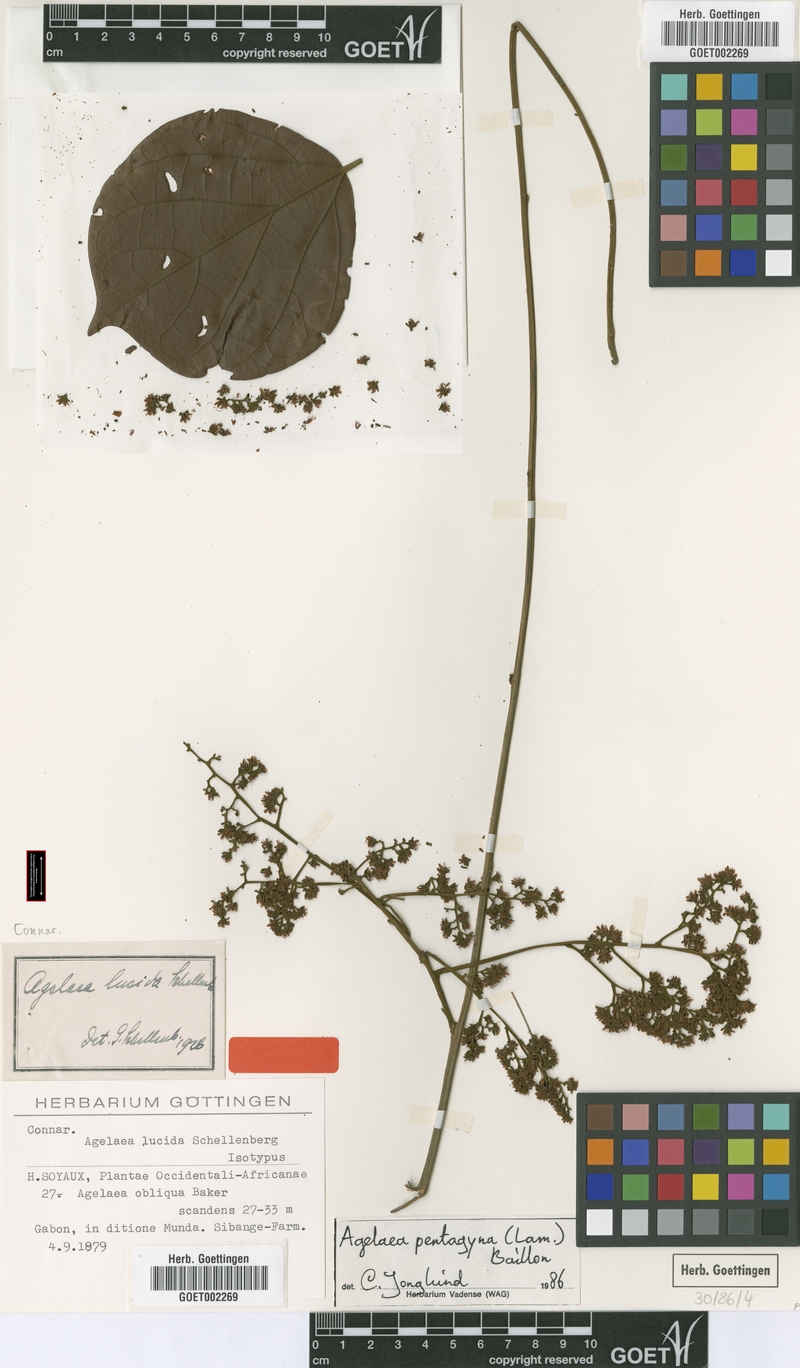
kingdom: Plantae
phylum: Tracheophyta
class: Magnoliopsida
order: Oxalidales
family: Connaraceae
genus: Agelaea
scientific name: Agelaea pentagyna
